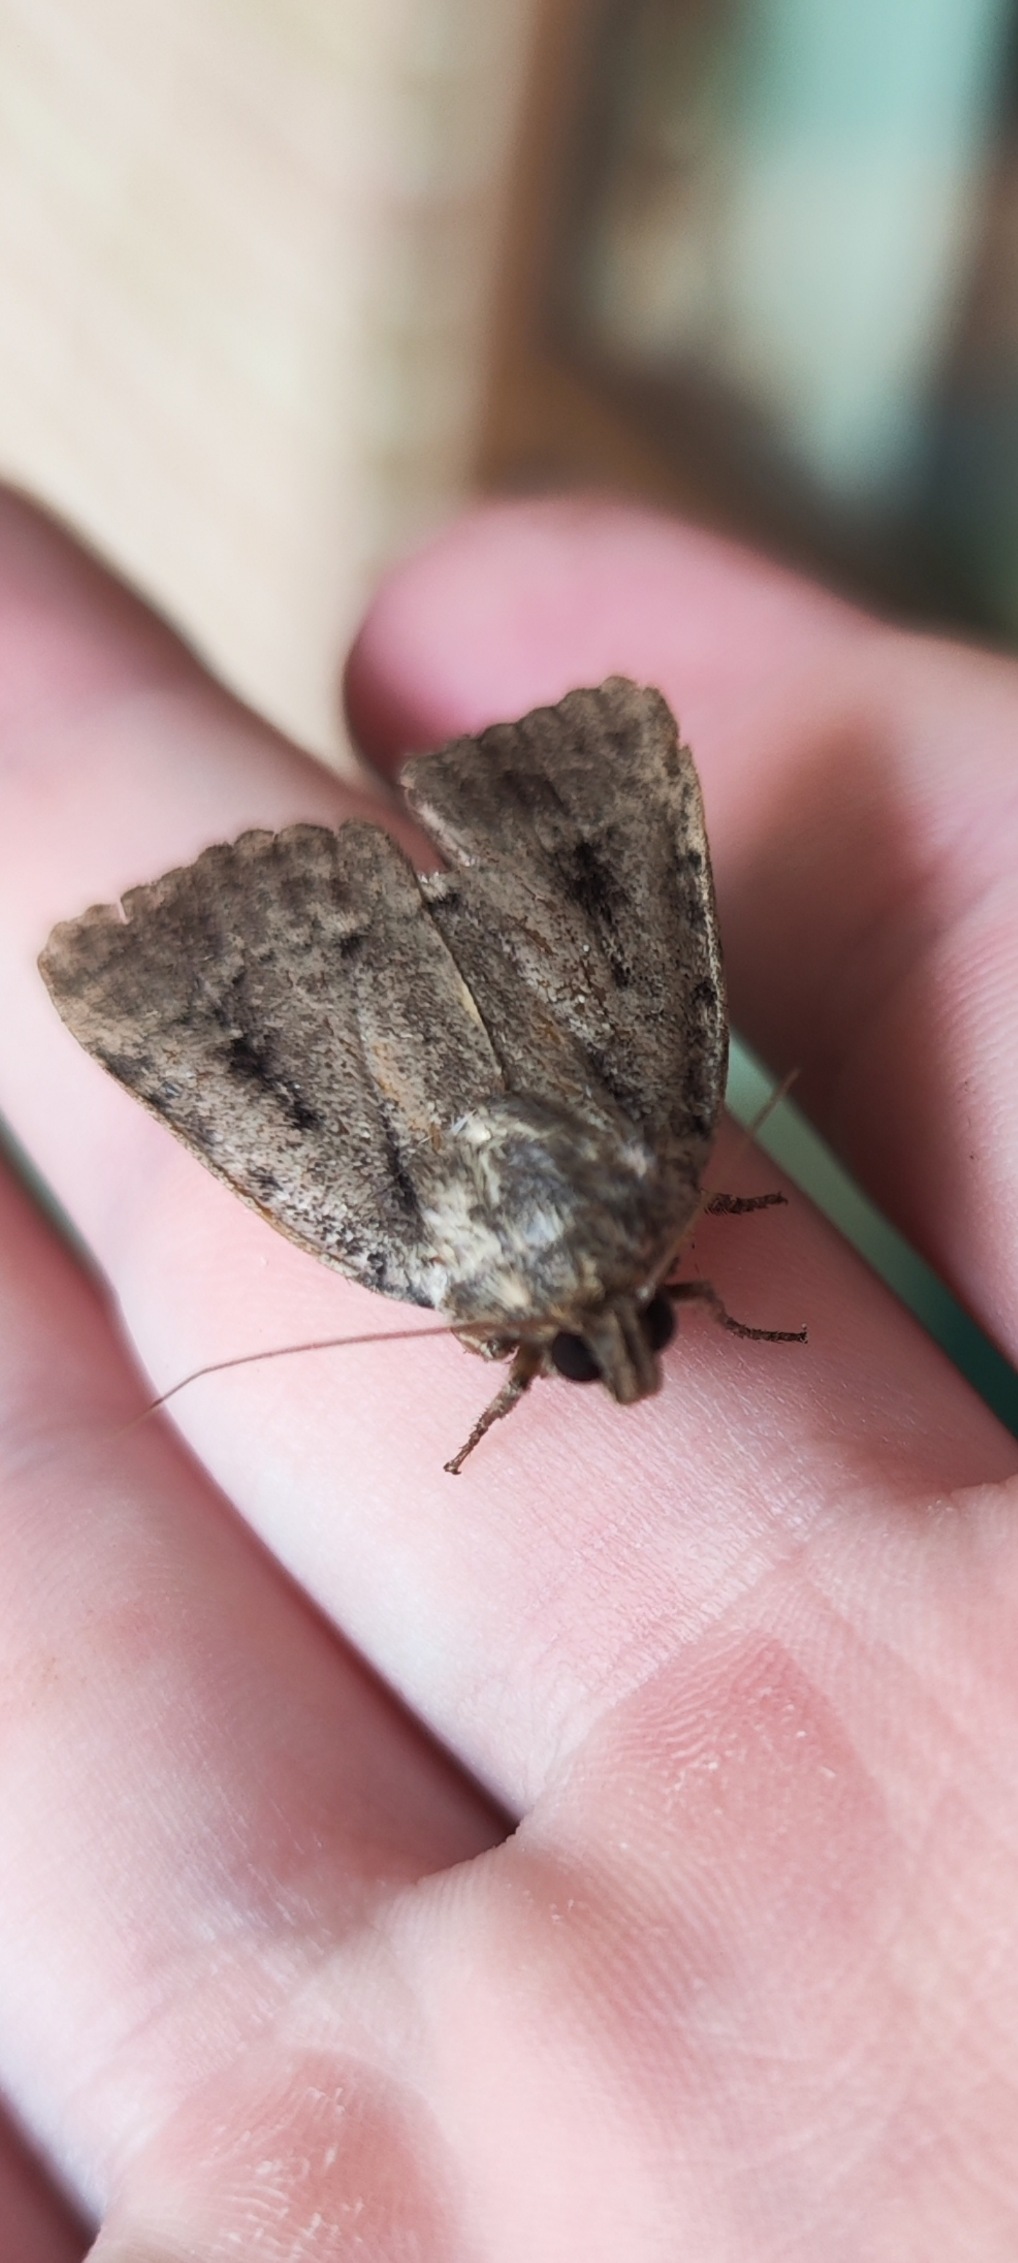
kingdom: Animalia
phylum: Arthropoda
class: Insecta
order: Lepidoptera
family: Noctuidae
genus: Amphipyra
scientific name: Amphipyra pyramidea
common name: Pyramideugle
